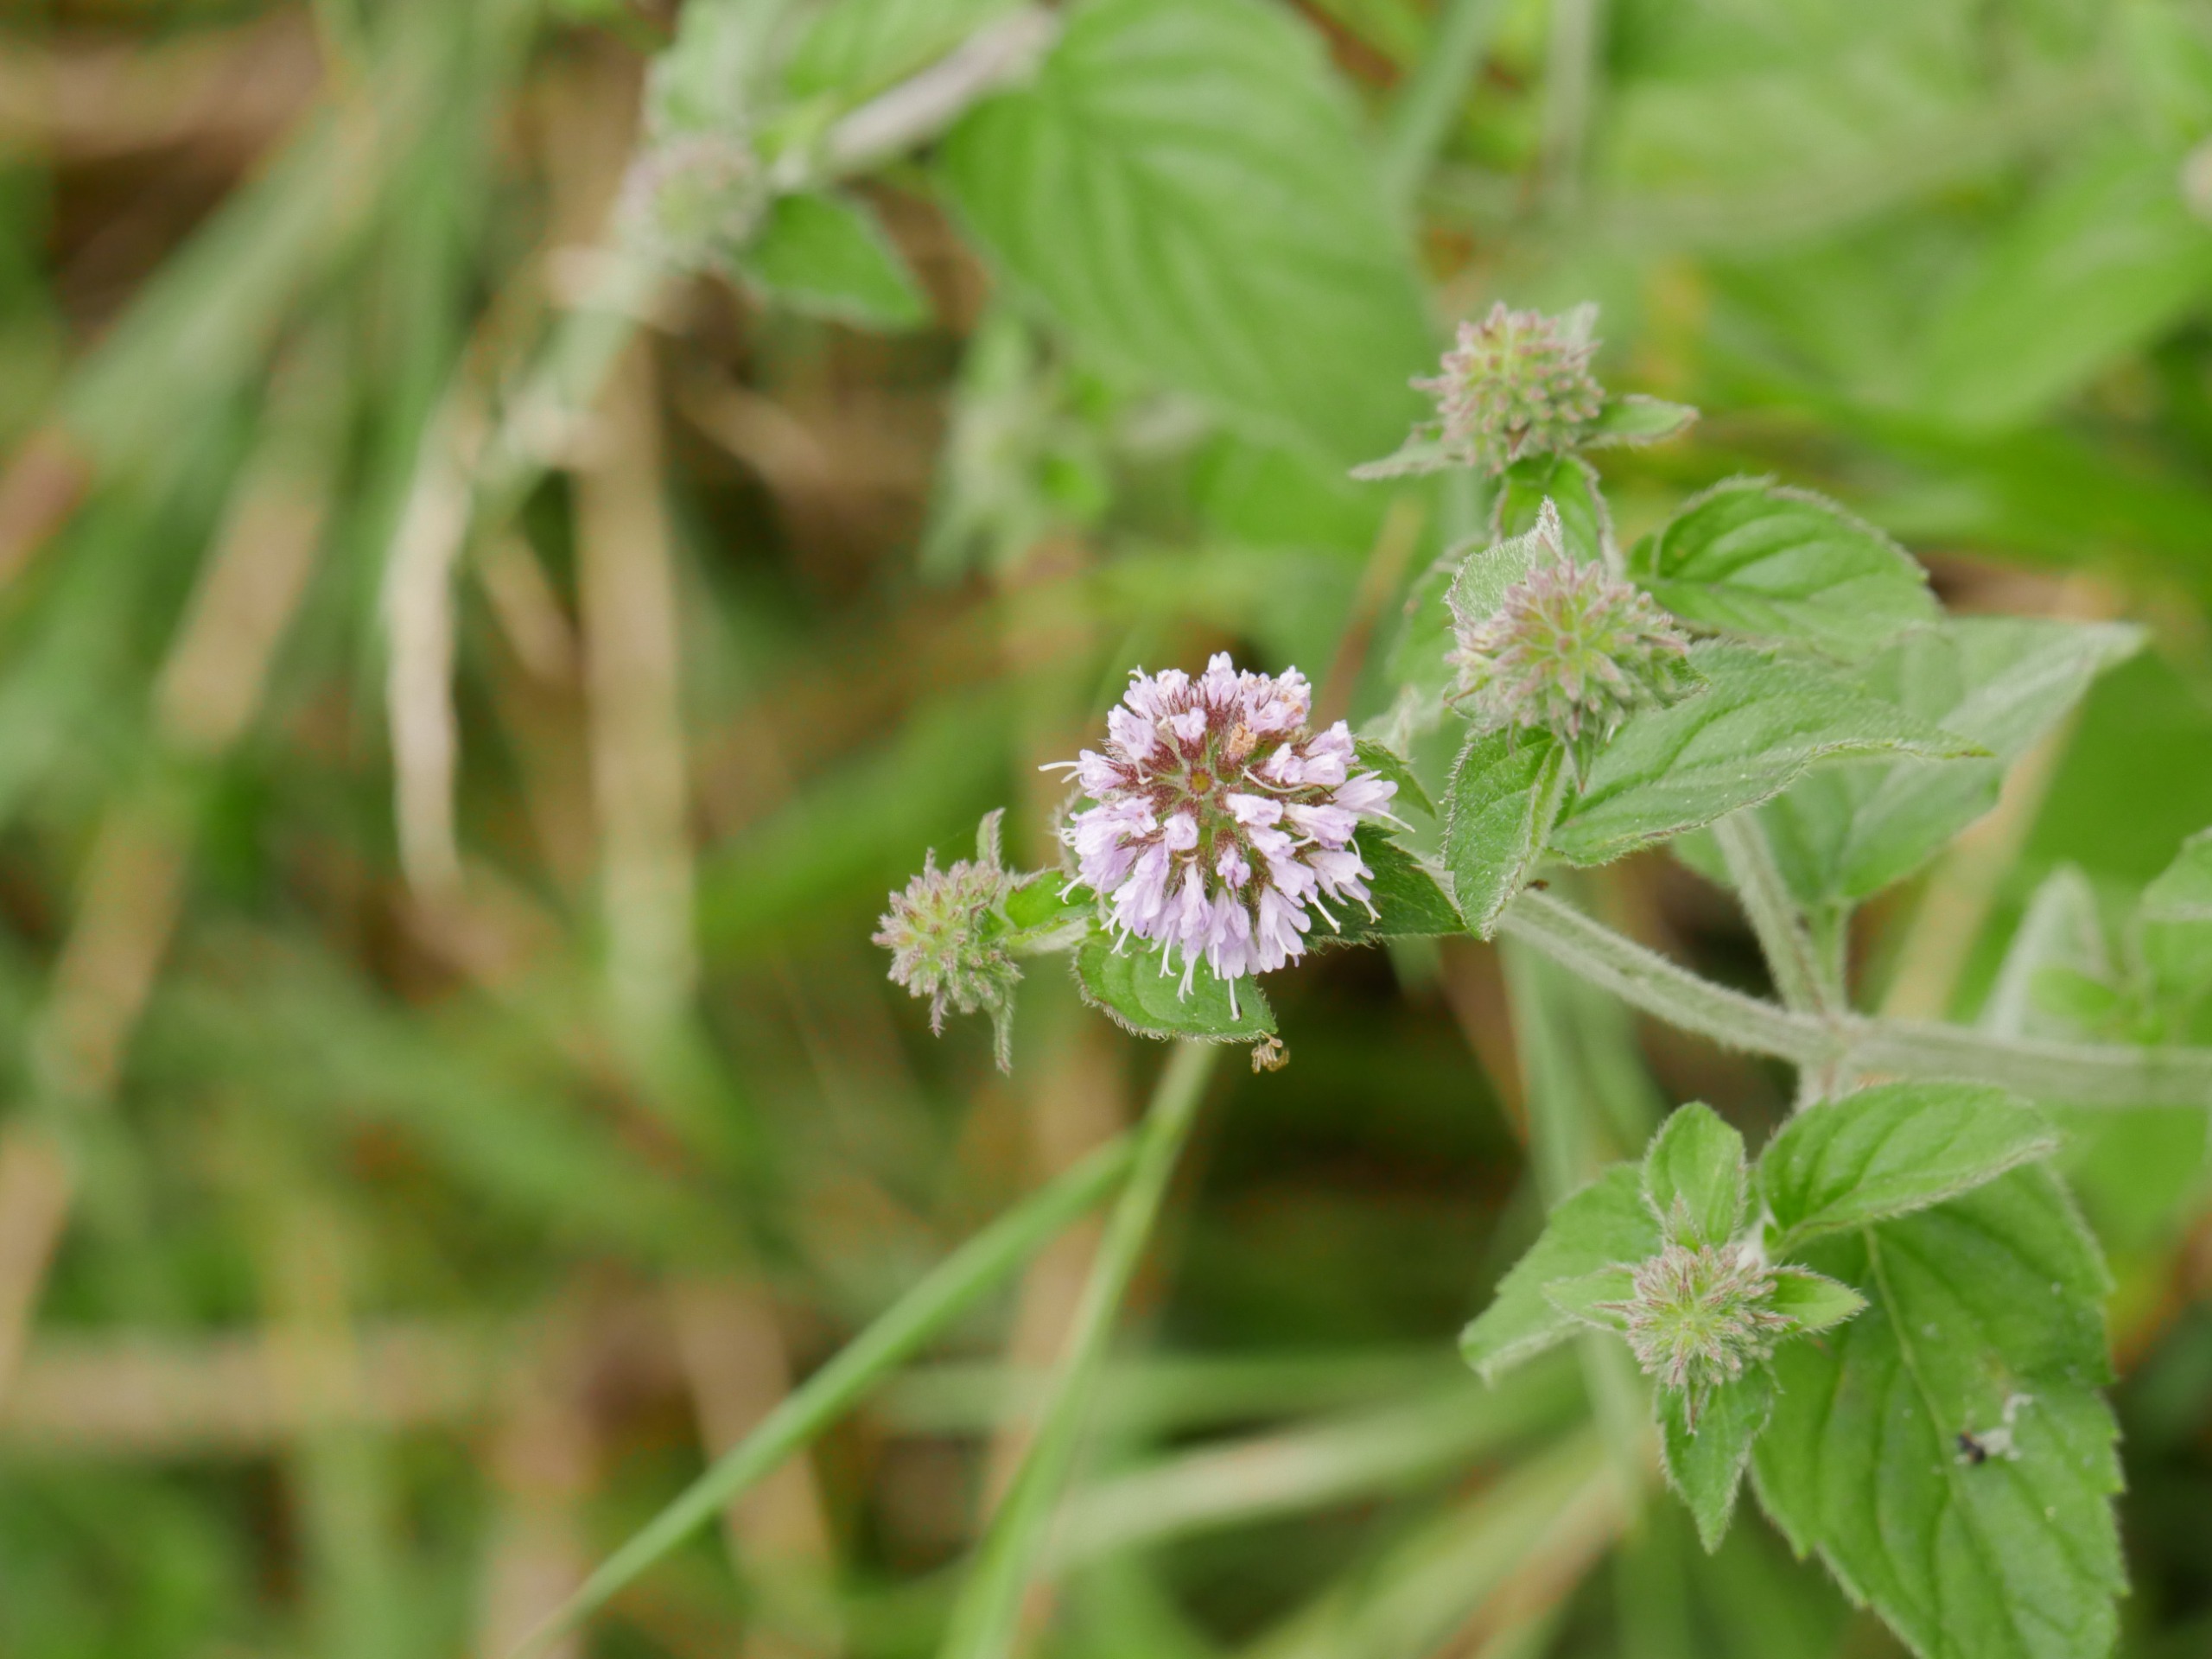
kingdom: Plantae
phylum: Tracheophyta
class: Magnoliopsida
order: Lamiales
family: Lamiaceae
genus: Mentha
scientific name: Mentha aquatica
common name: Vand-mynte
